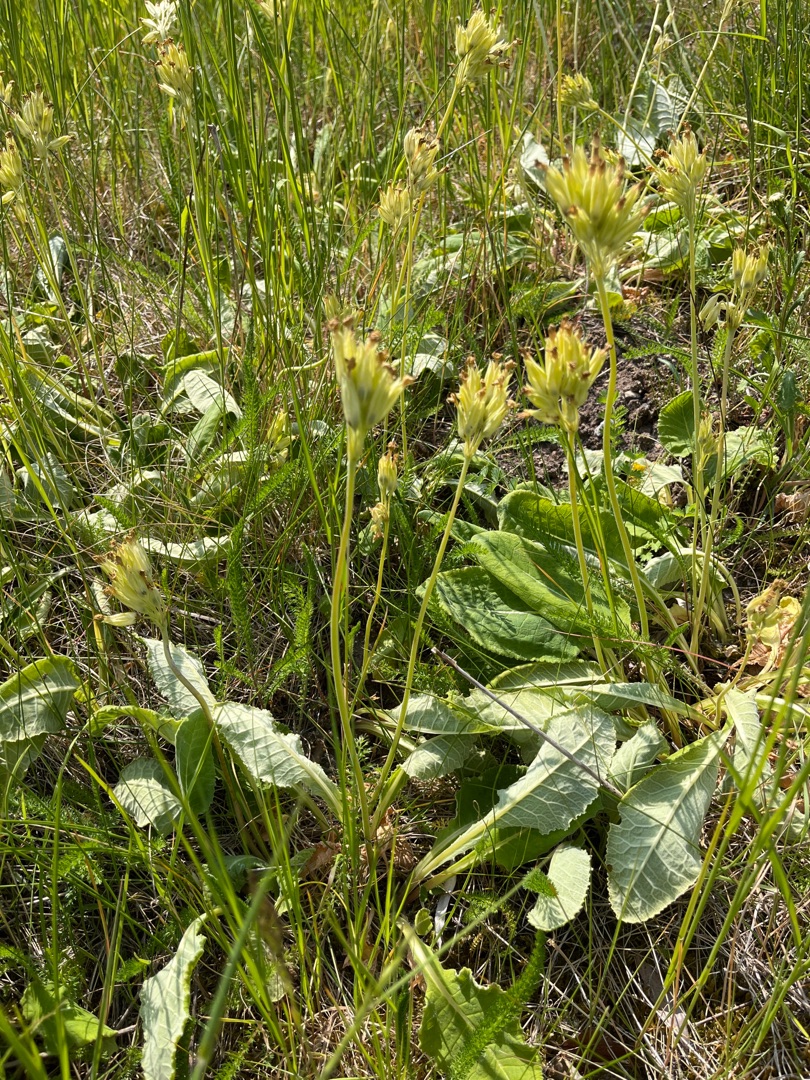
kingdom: Plantae
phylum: Tracheophyta
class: Magnoliopsida
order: Ericales
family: Primulaceae
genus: Primula
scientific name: Primula veris
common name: Hulkravet kodriver
